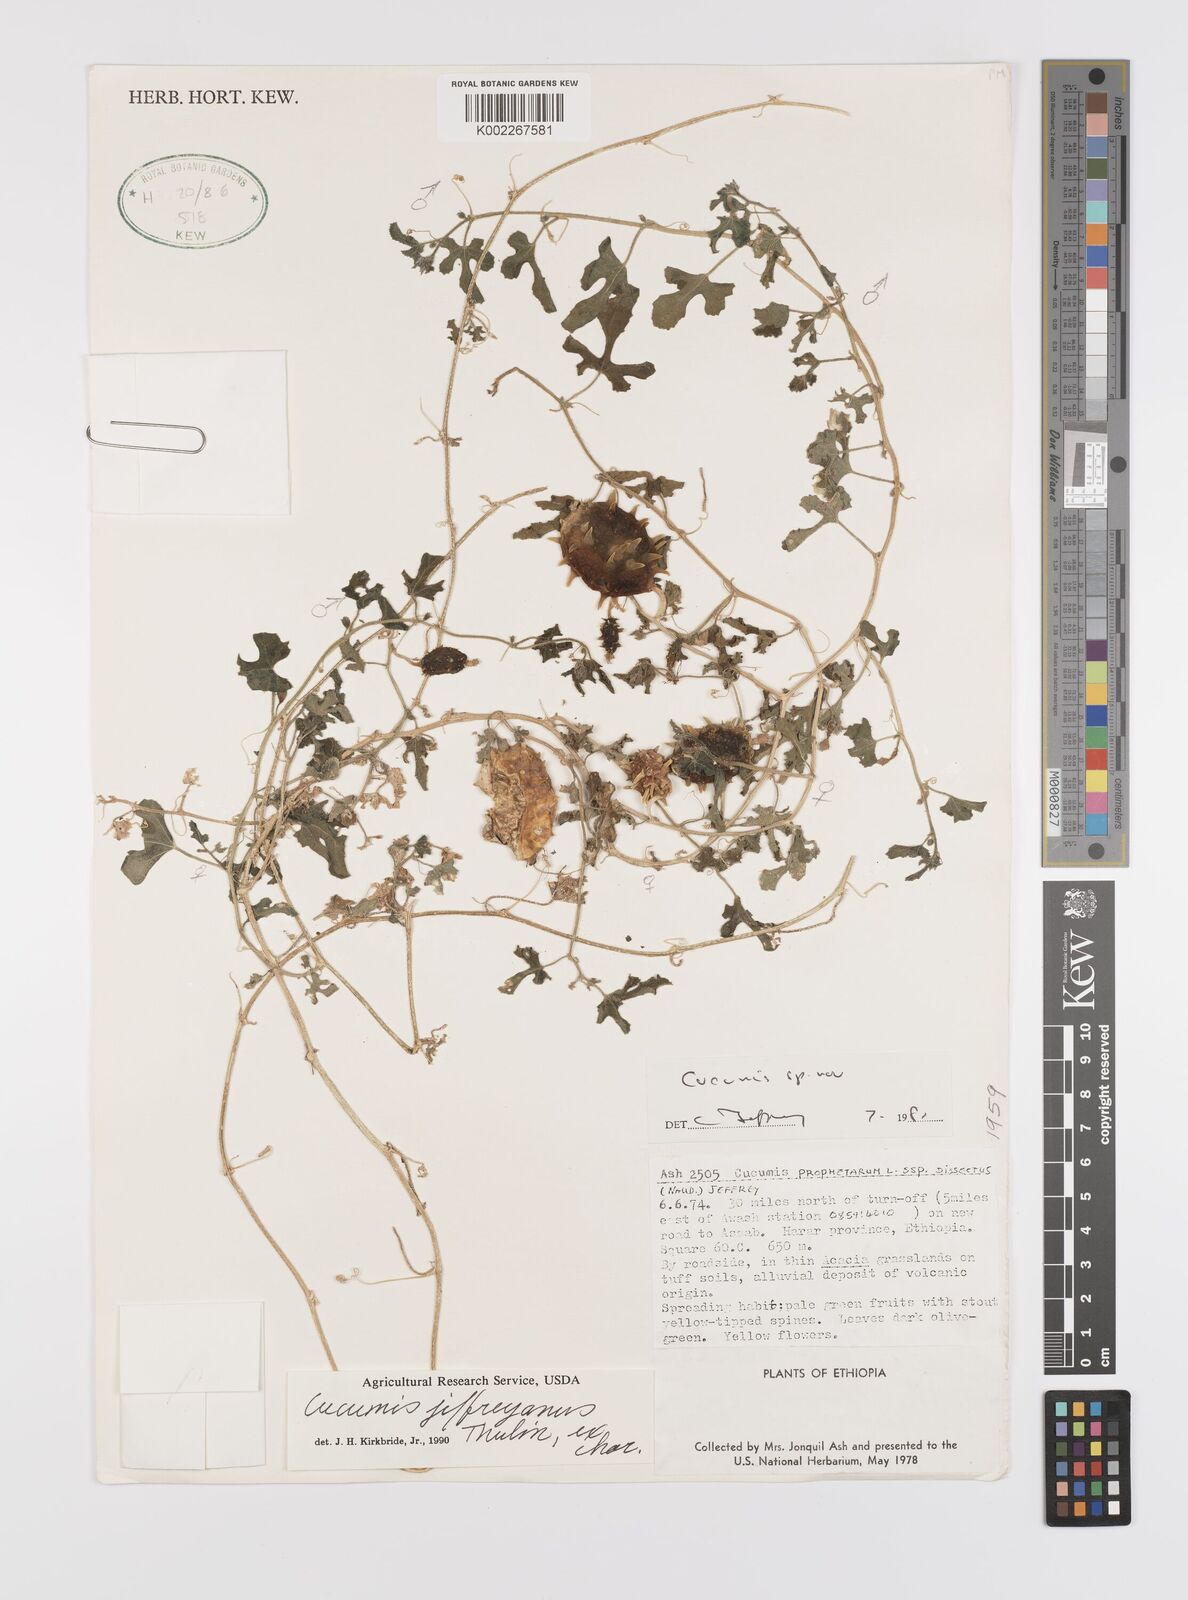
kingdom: Plantae
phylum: Tracheophyta
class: Magnoliopsida
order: Cucurbitales
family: Cucurbitaceae
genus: Cucumis
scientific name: Cucumis jeffreyanus
